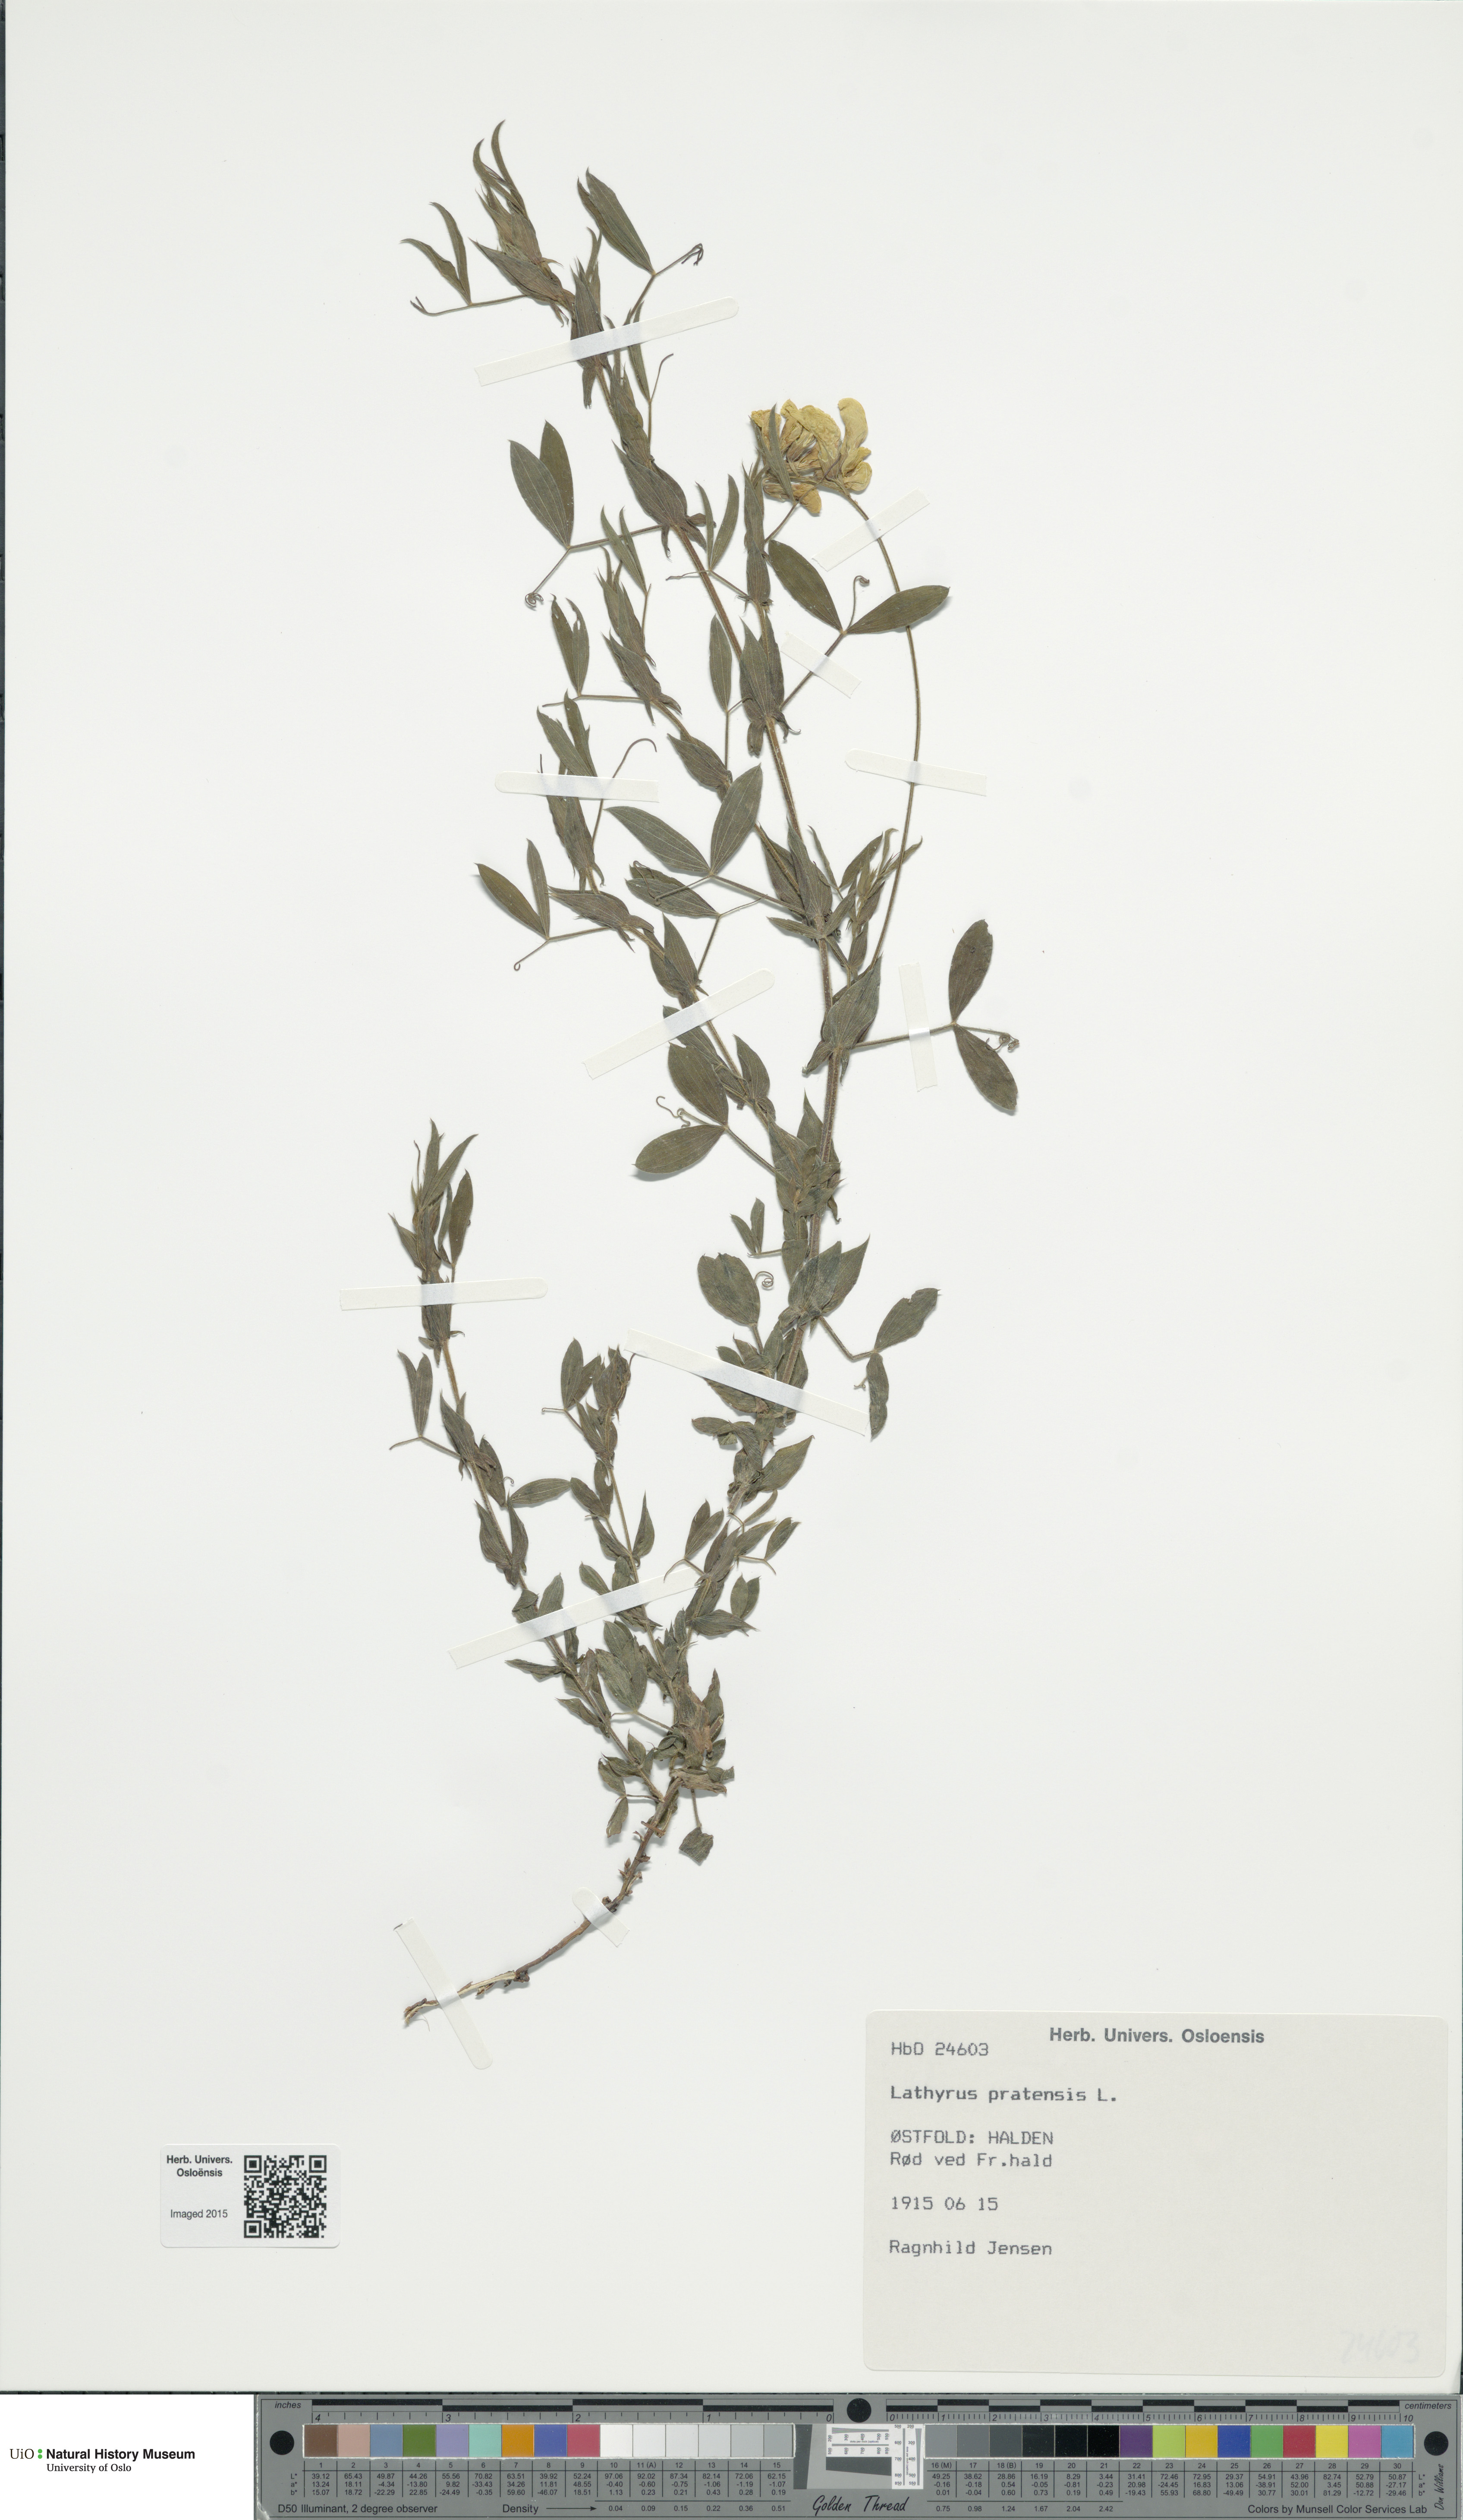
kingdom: Plantae
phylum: Tracheophyta
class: Magnoliopsida
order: Fabales
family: Fabaceae
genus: Lathyrus
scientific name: Lathyrus pratensis
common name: Meadow vetchling
